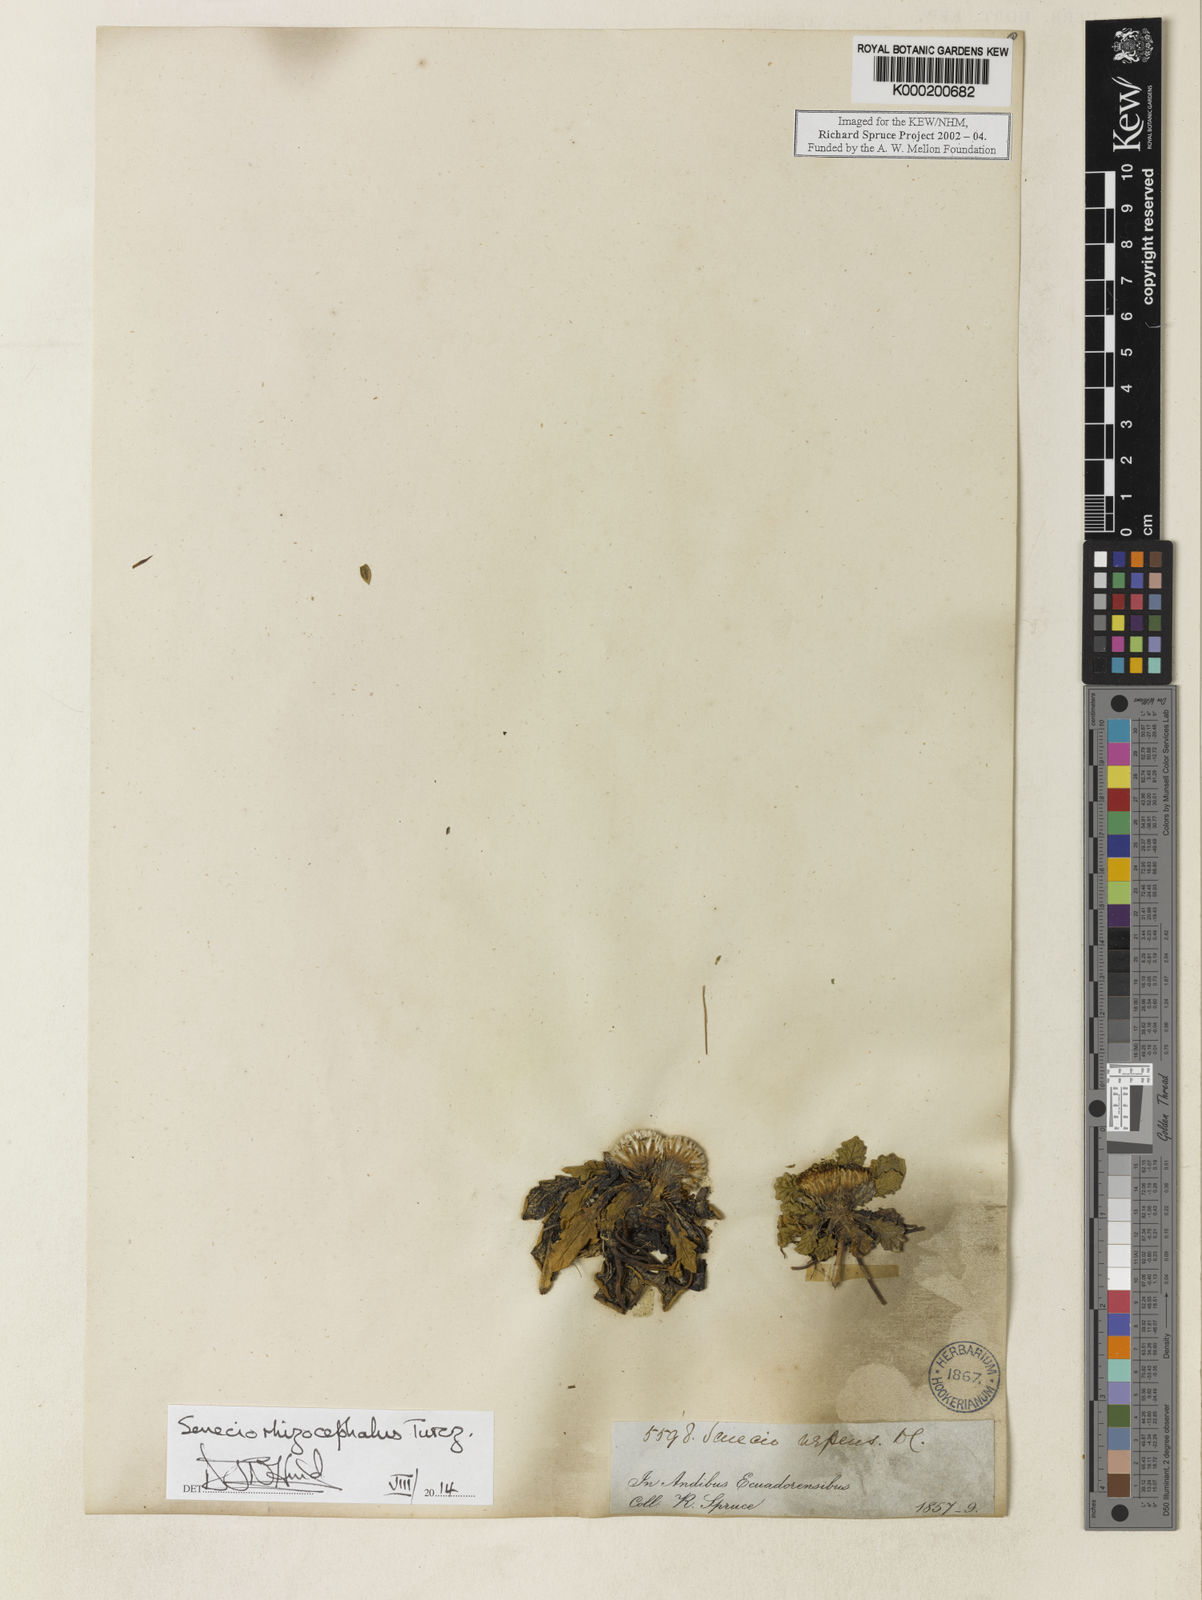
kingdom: Plantae
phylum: Tracheophyta
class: Magnoliopsida
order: Asterales
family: Asteraceae
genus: Senecio
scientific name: Senecio rhizocephalus
